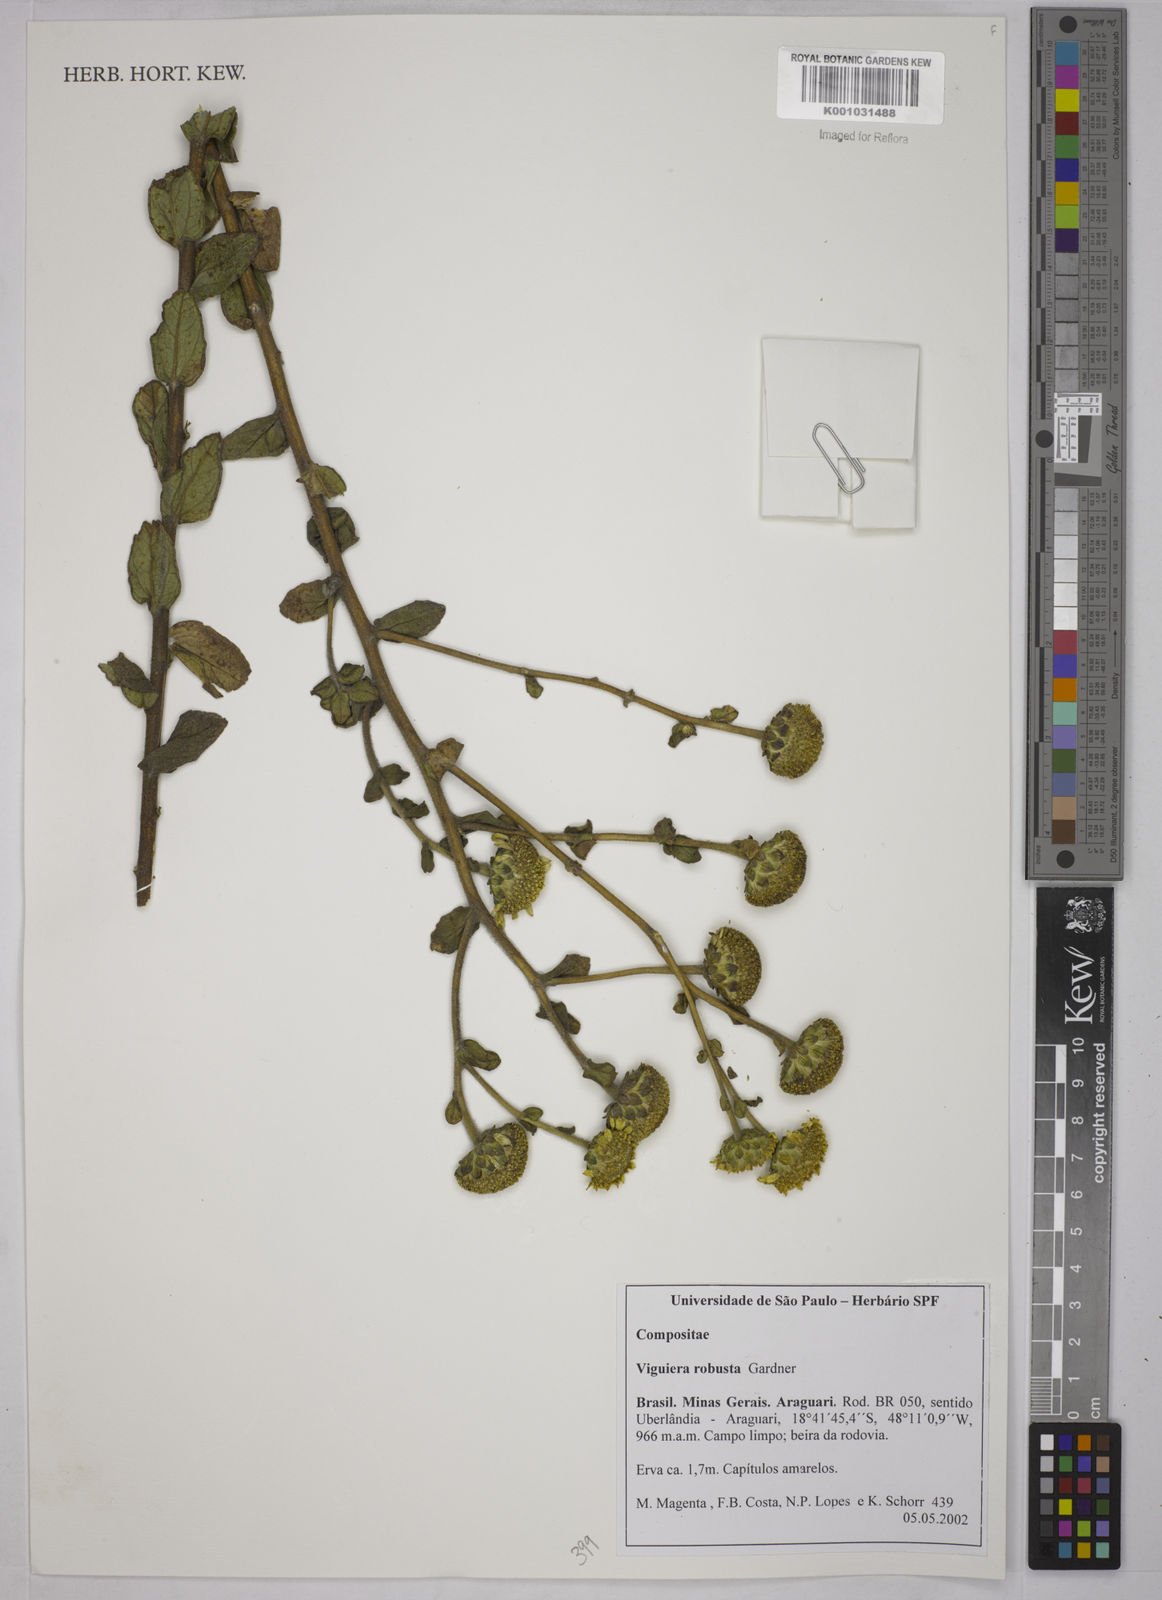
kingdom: Plantae
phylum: Tracheophyta
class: Magnoliopsida
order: Asterales
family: Asteraceae
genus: Aldama
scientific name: Aldama robusta
